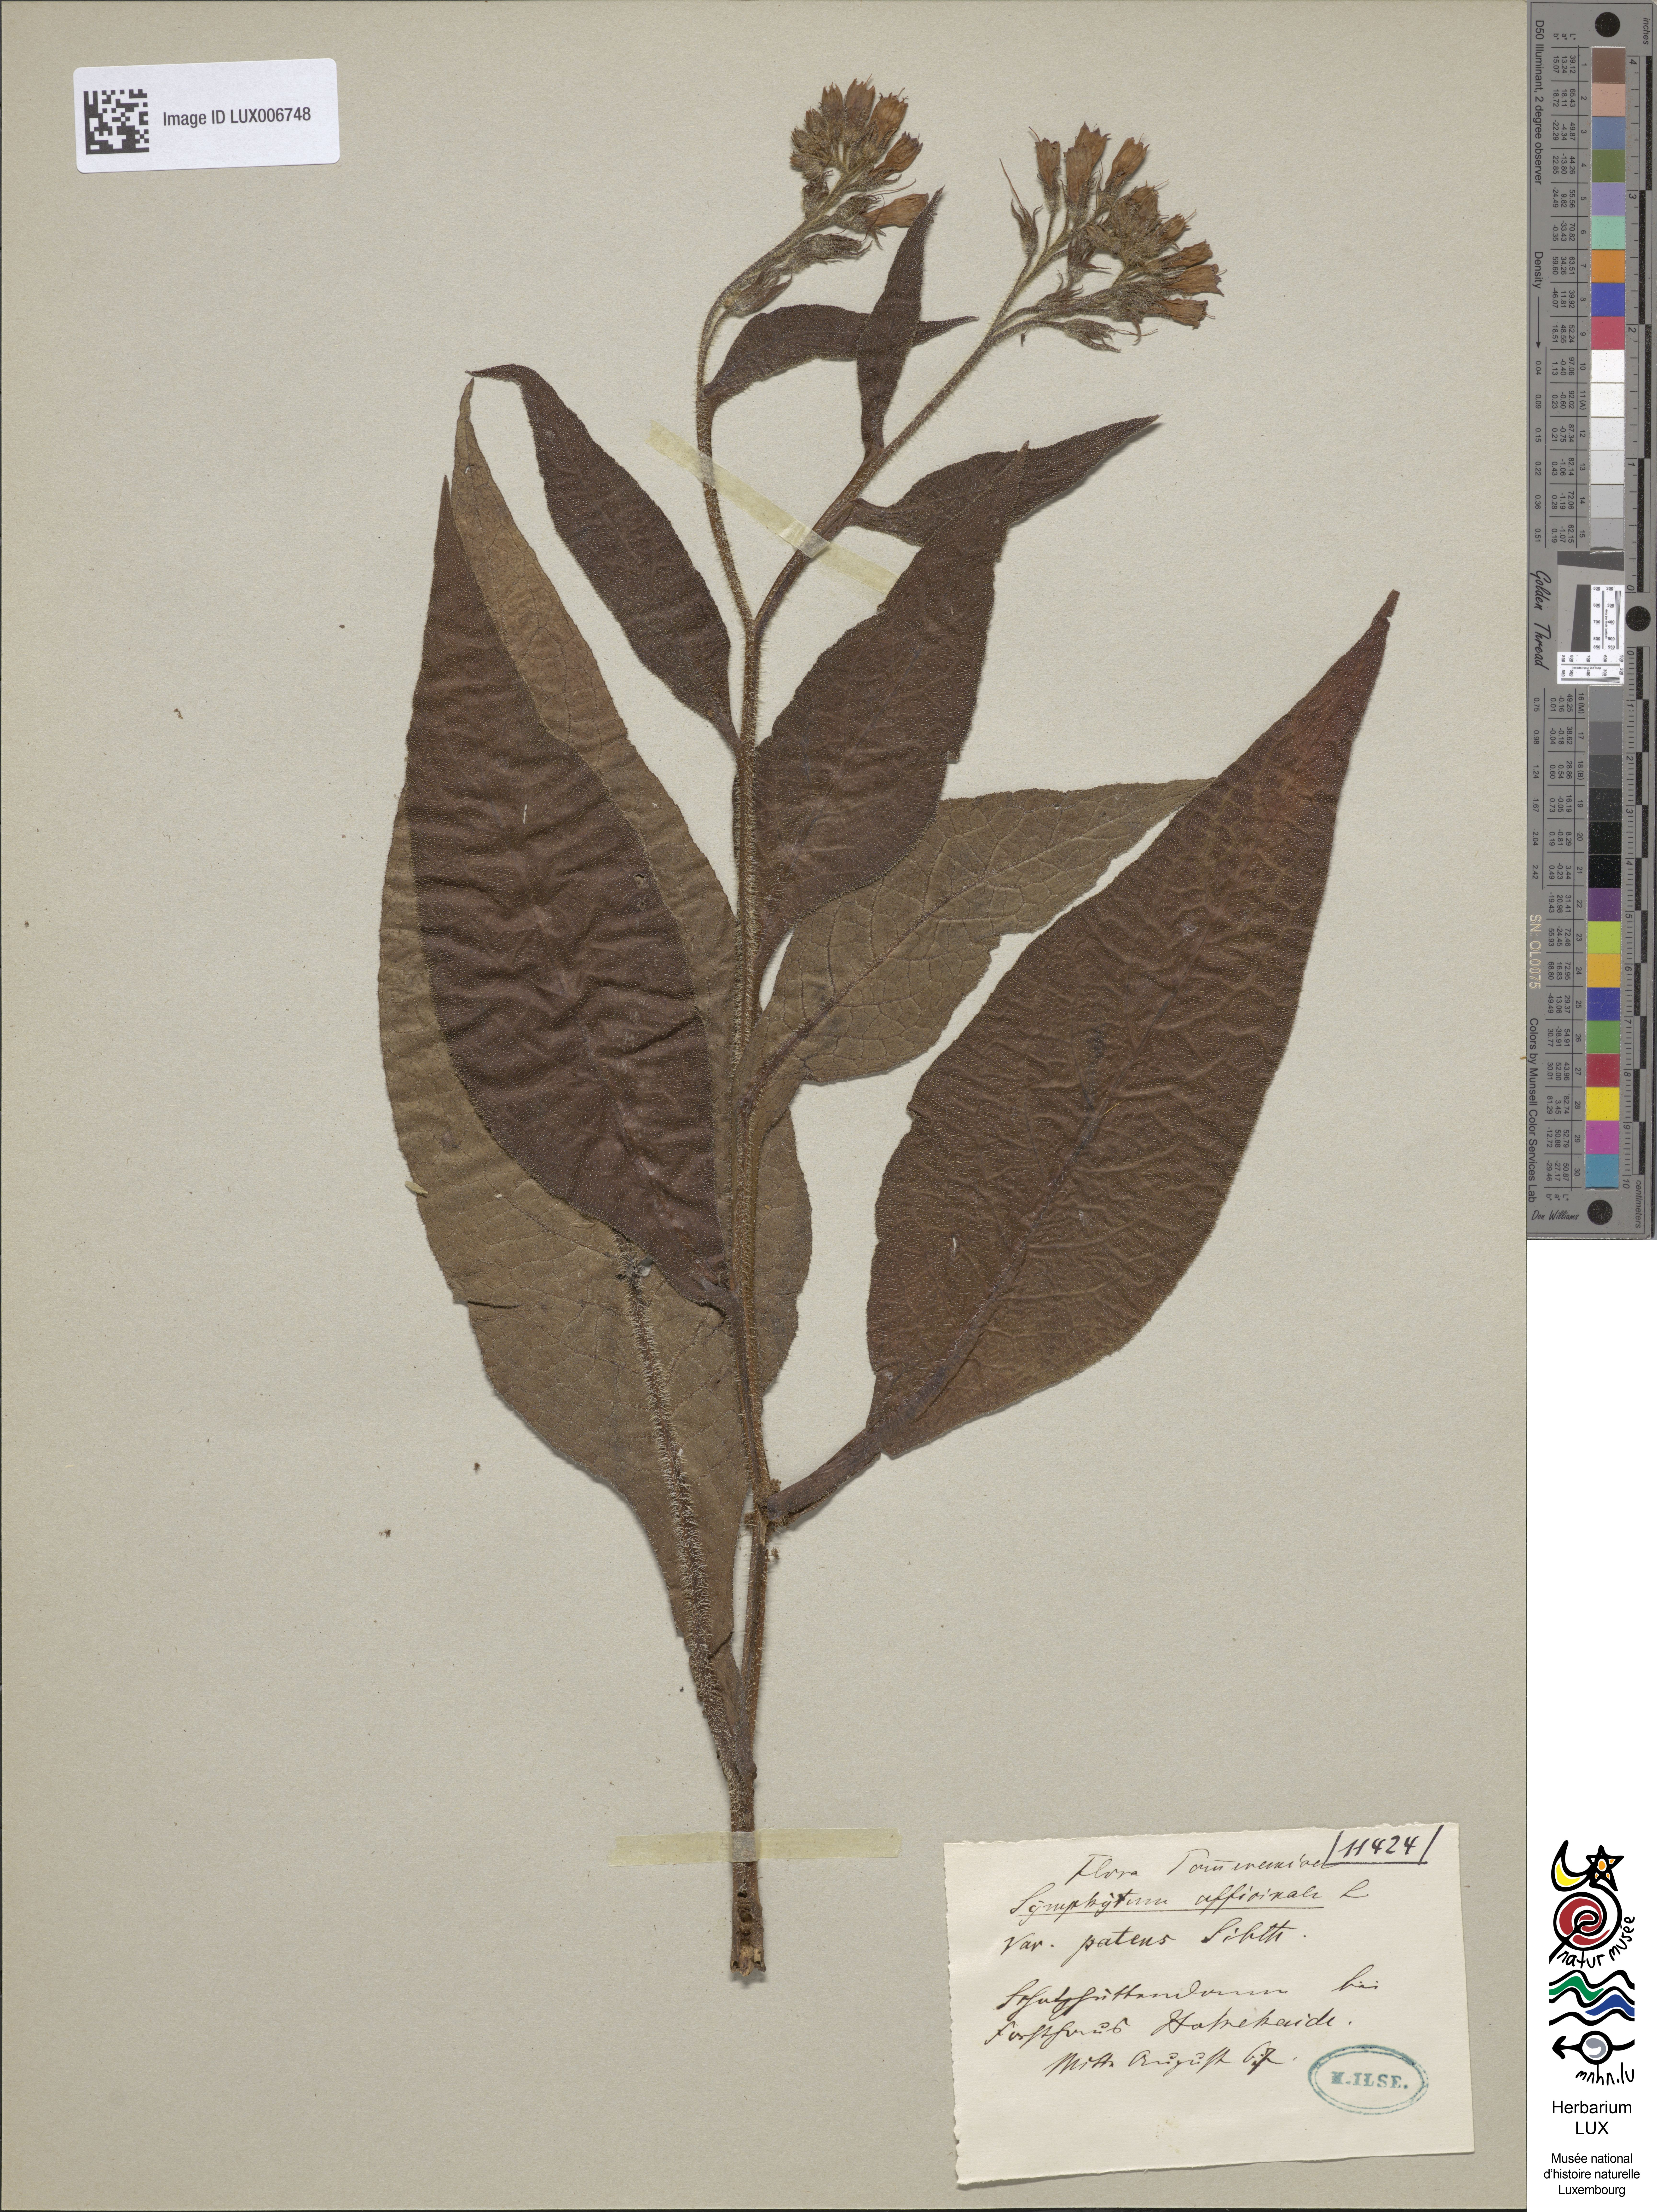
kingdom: Plantae
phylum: Tracheophyta
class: Magnoliopsida
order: Boraginales
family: Boraginaceae
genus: Symphytum
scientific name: Symphytum officinale
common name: Common comfrey
